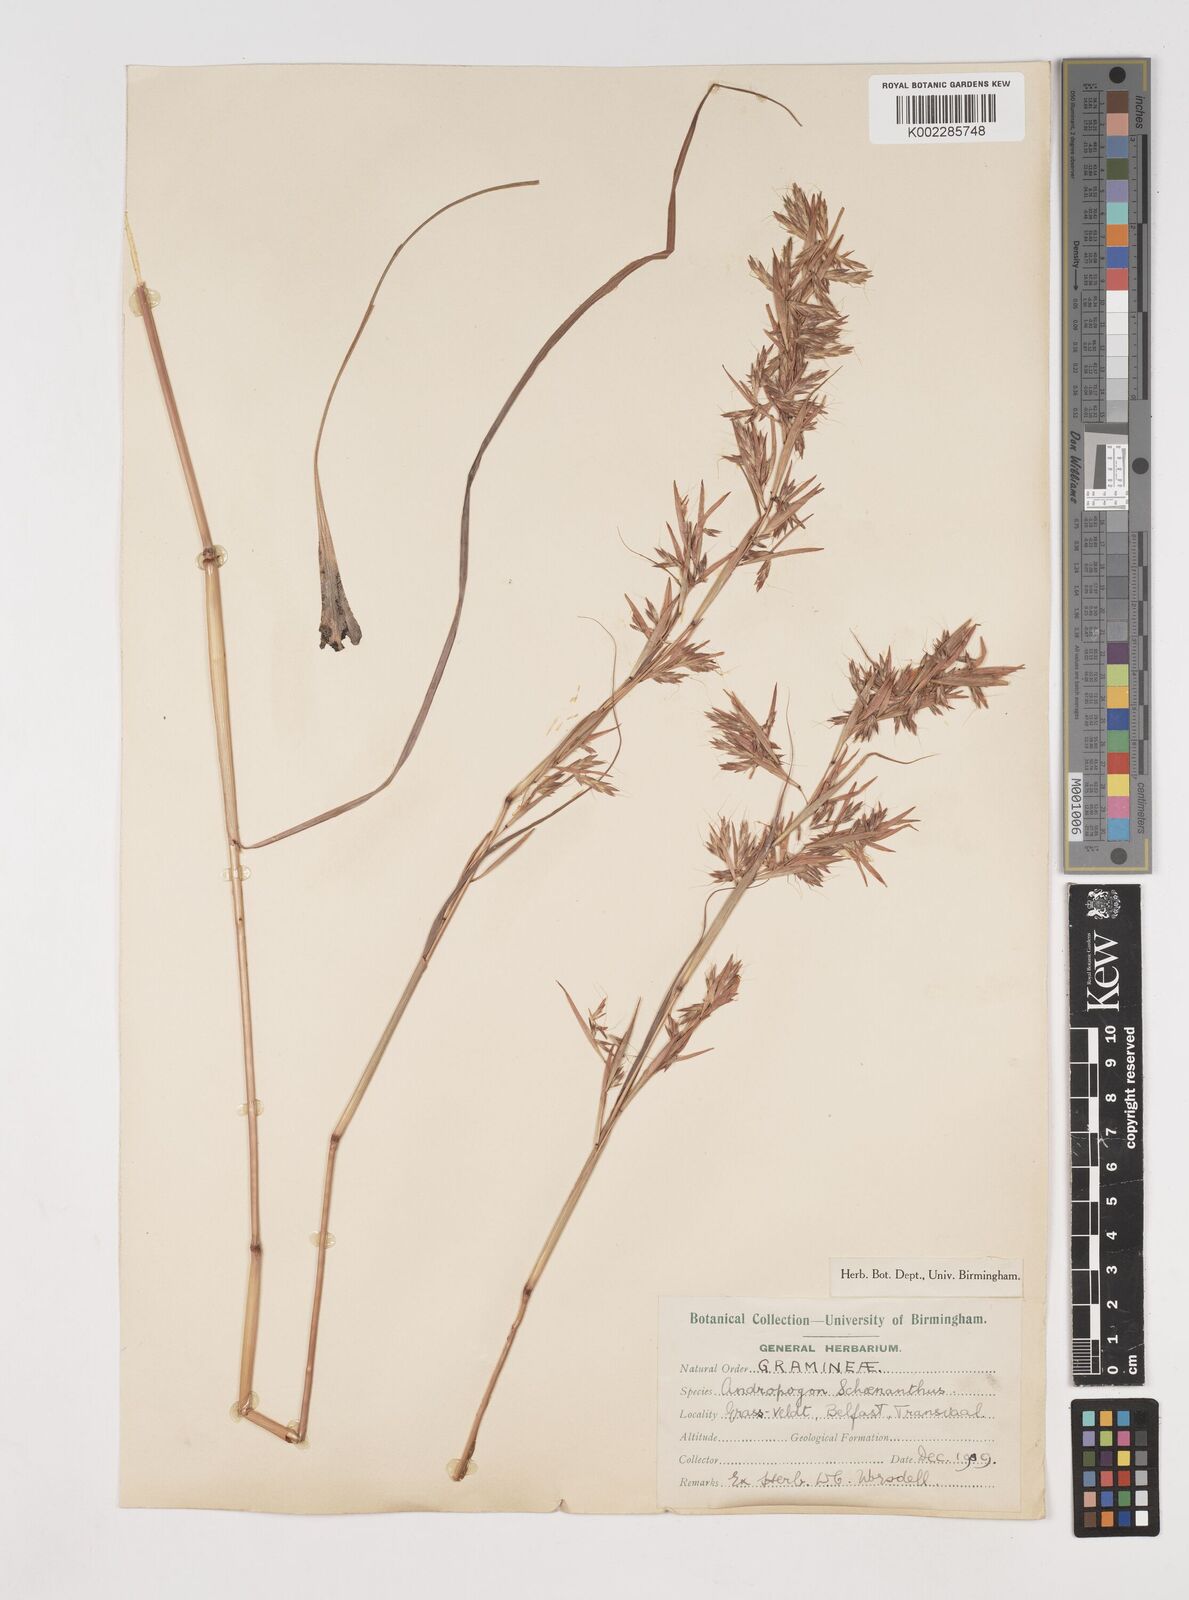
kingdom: Plantae
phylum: Tracheophyta
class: Liliopsida
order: Poales
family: Poaceae
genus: Cymbopogon
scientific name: Cymbopogon nardus
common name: Giant turpentine grass
